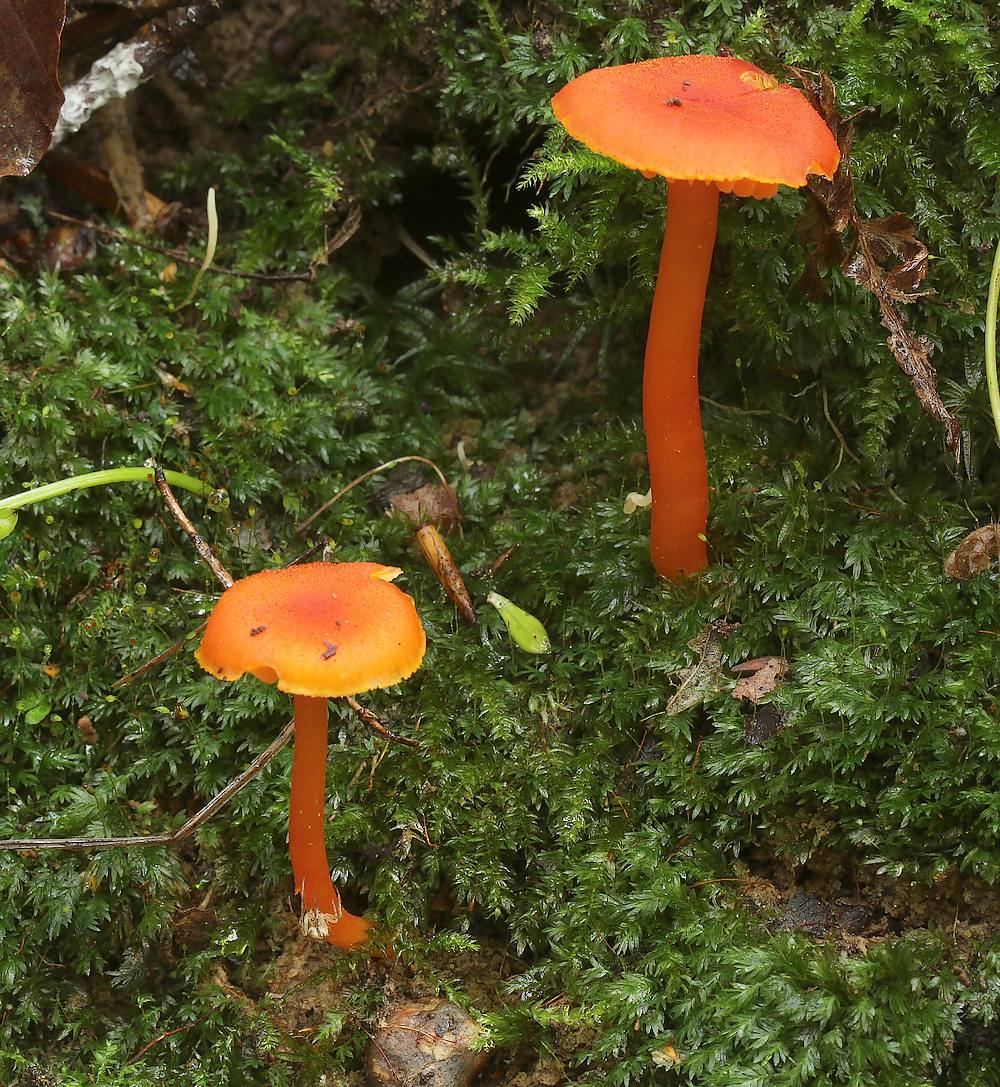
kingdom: Fungi
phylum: Basidiomycota
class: Agaricomycetes
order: Agaricales
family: Hygrophoraceae
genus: Hygrocybe
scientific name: Hygrocybe miniata
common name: mønje-vokshat
